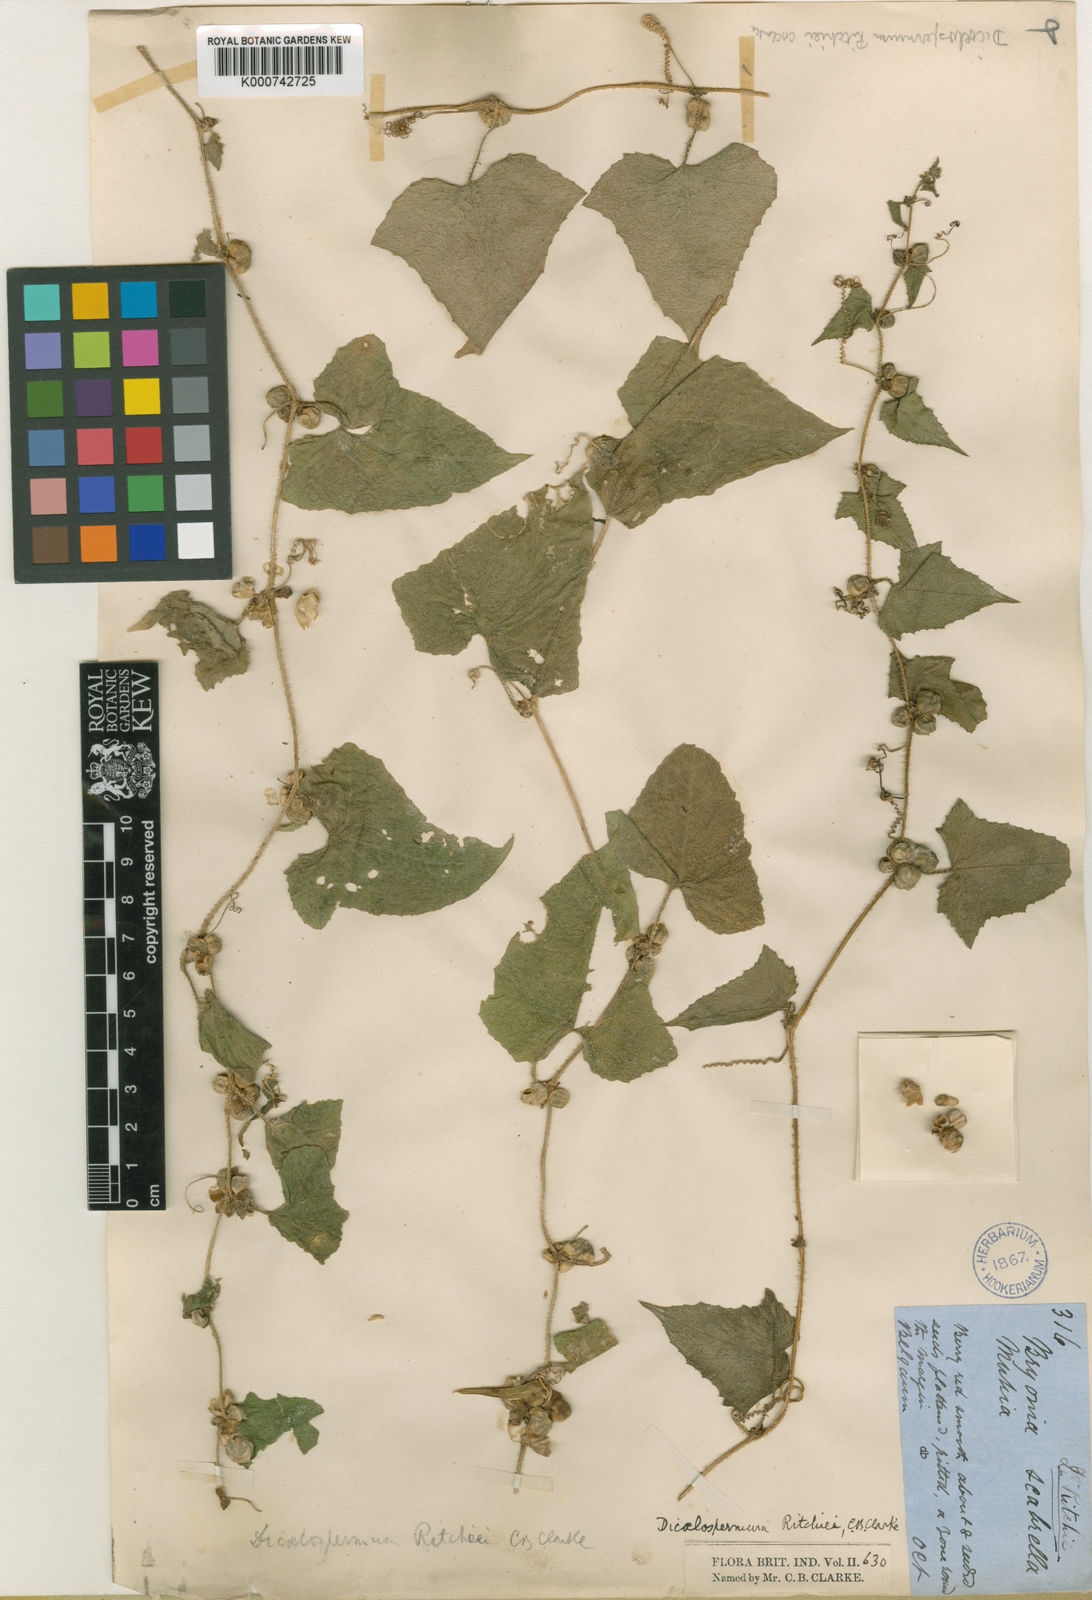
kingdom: Plantae
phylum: Tracheophyta
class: Magnoliopsida
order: Cucurbitales
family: Cucurbitaceae
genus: Cucumis
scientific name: Cucumis ritchiei
